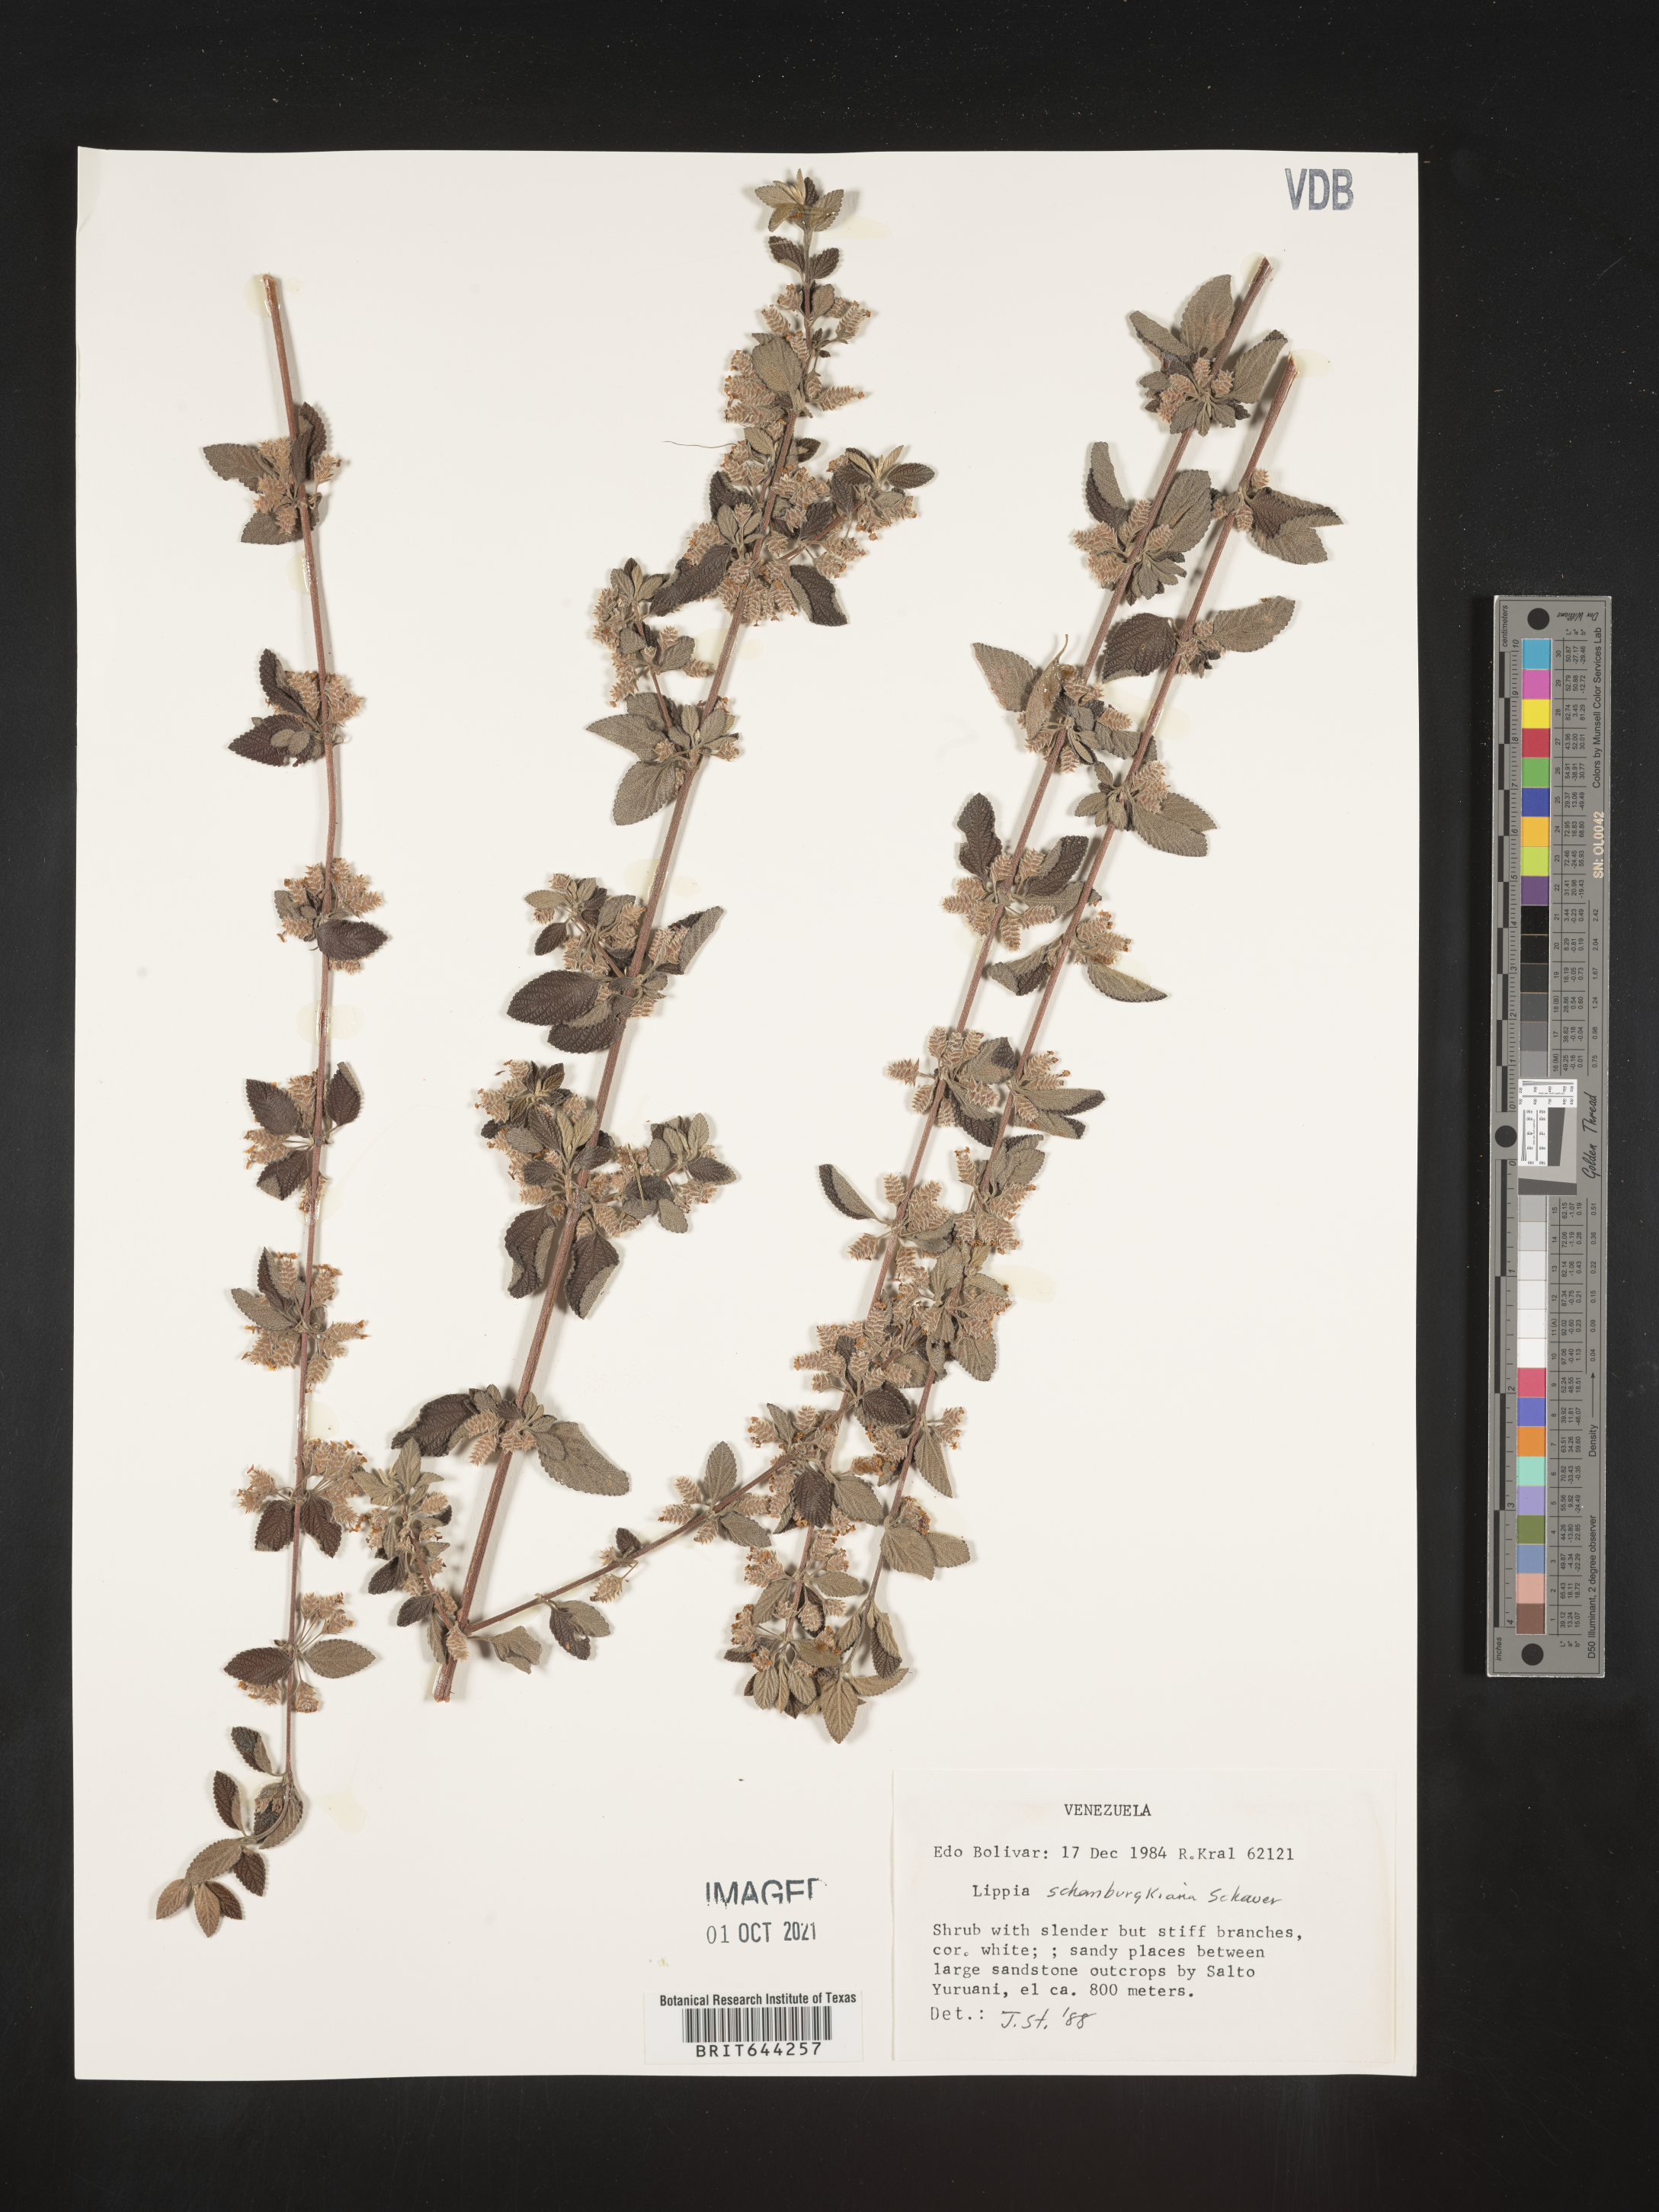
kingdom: Plantae
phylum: Tracheophyta
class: Magnoliopsida
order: Lamiales
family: Verbenaceae
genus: Lippia
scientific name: Lippia
